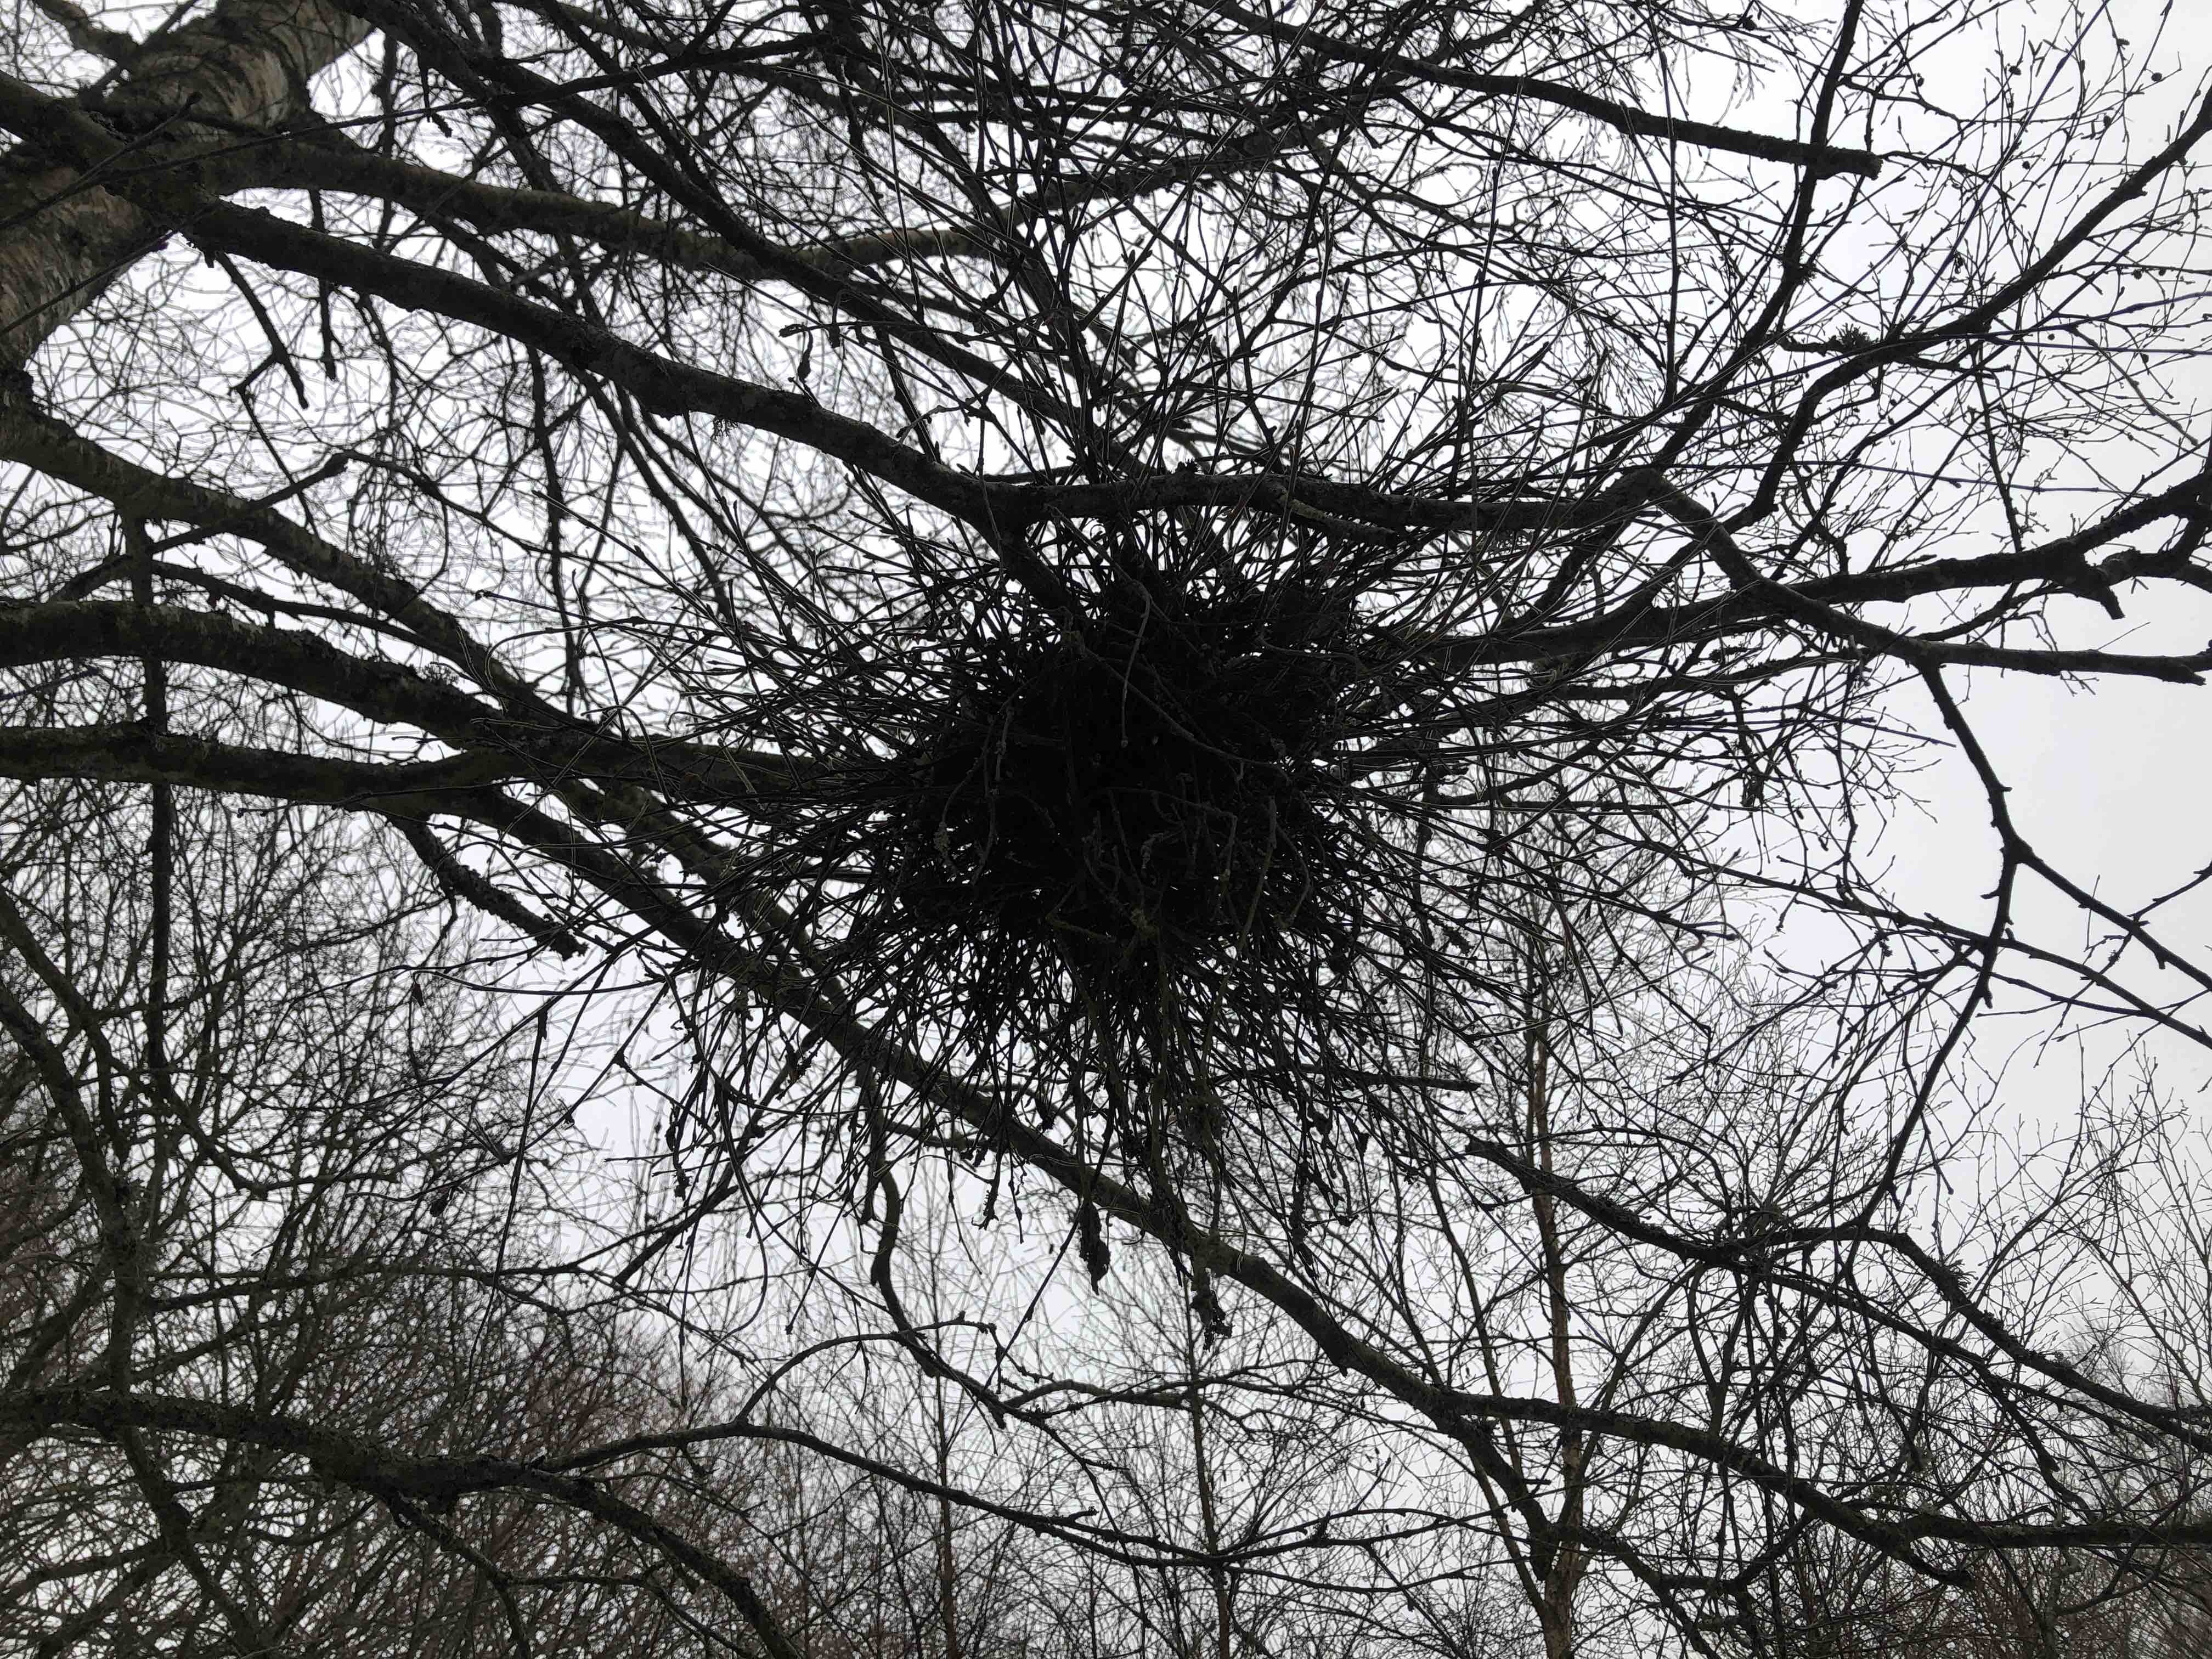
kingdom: Fungi
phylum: Ascomycota
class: Taphrinomycetes
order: Taphrinales
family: Taphrinaceae
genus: Taphrina
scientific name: Taphrina betulina
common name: hekse-sækdug
